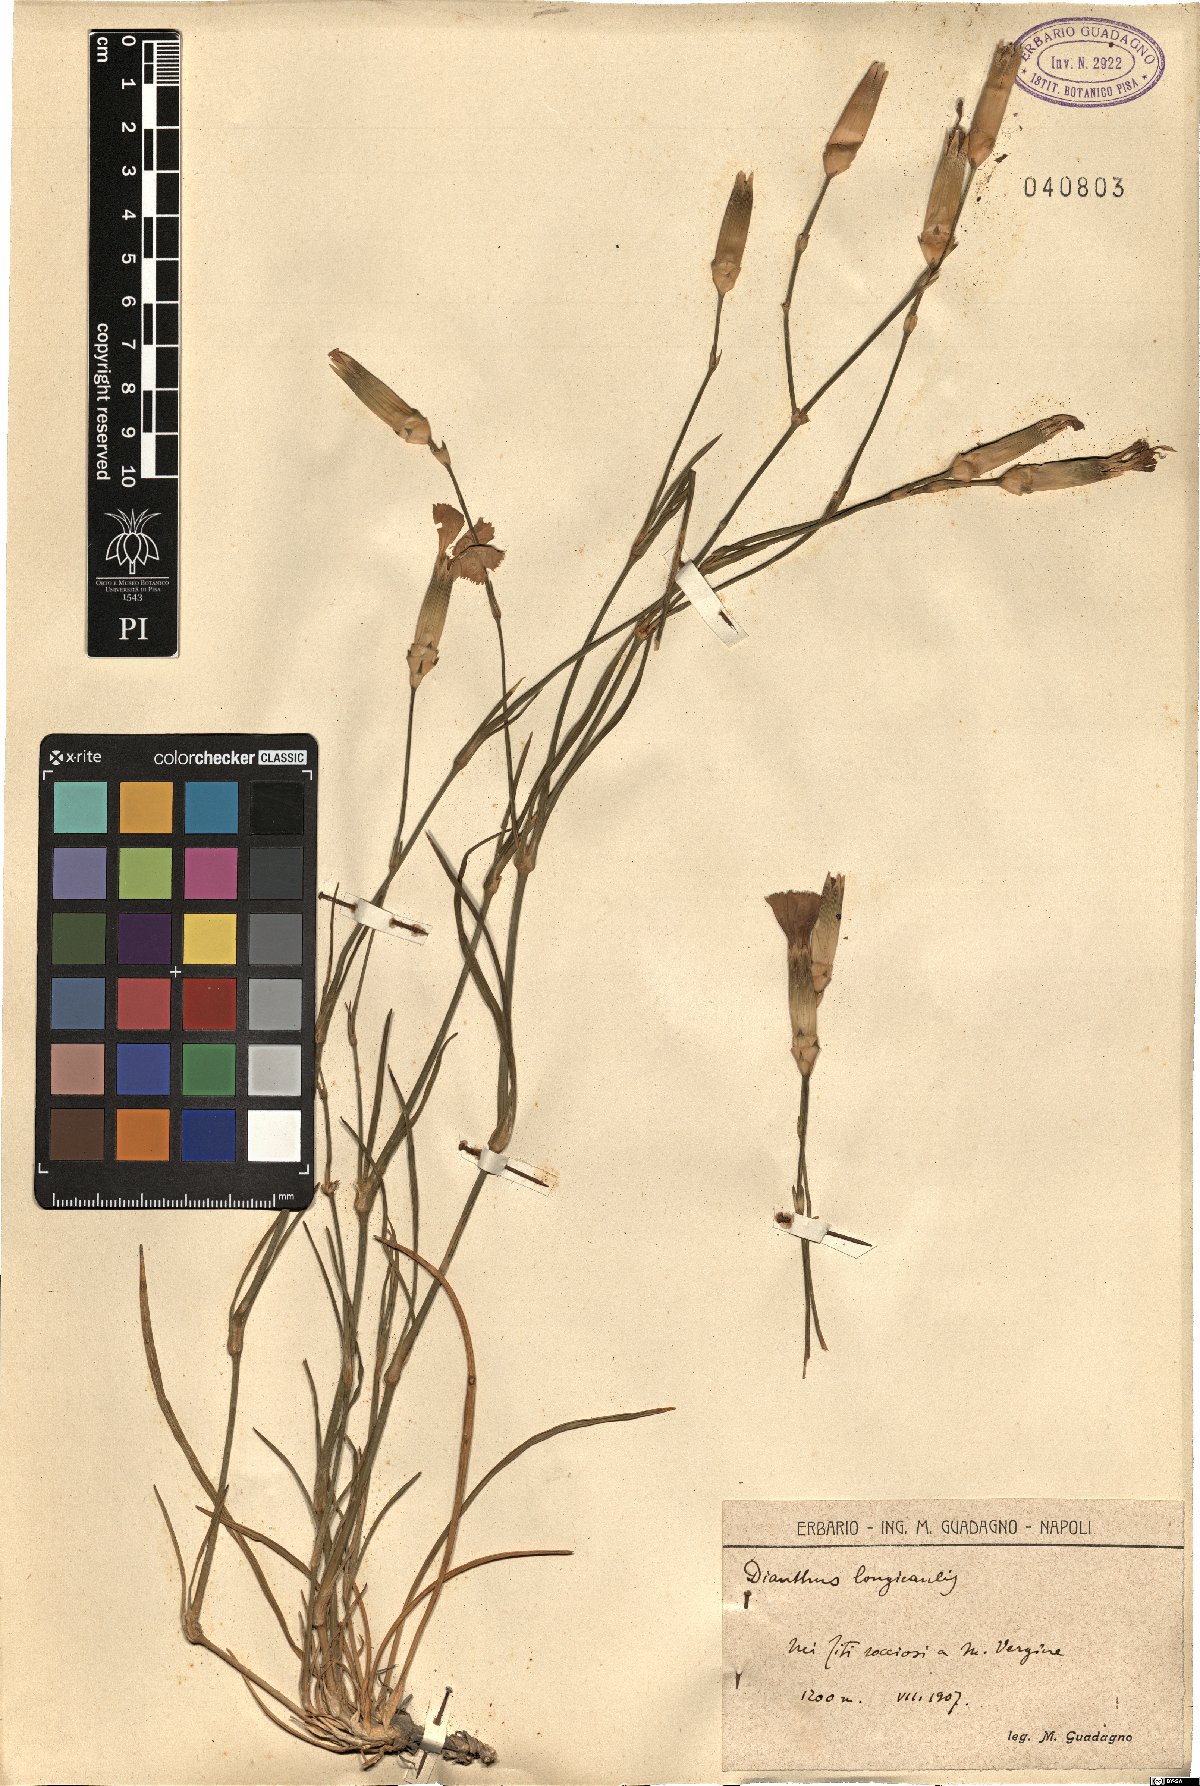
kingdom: Plantae
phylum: Tracheophyta
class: Magnoliopsida
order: Caryophyllales
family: Caryophyllaceae
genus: Dianthus
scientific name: Dianthus virgineus
